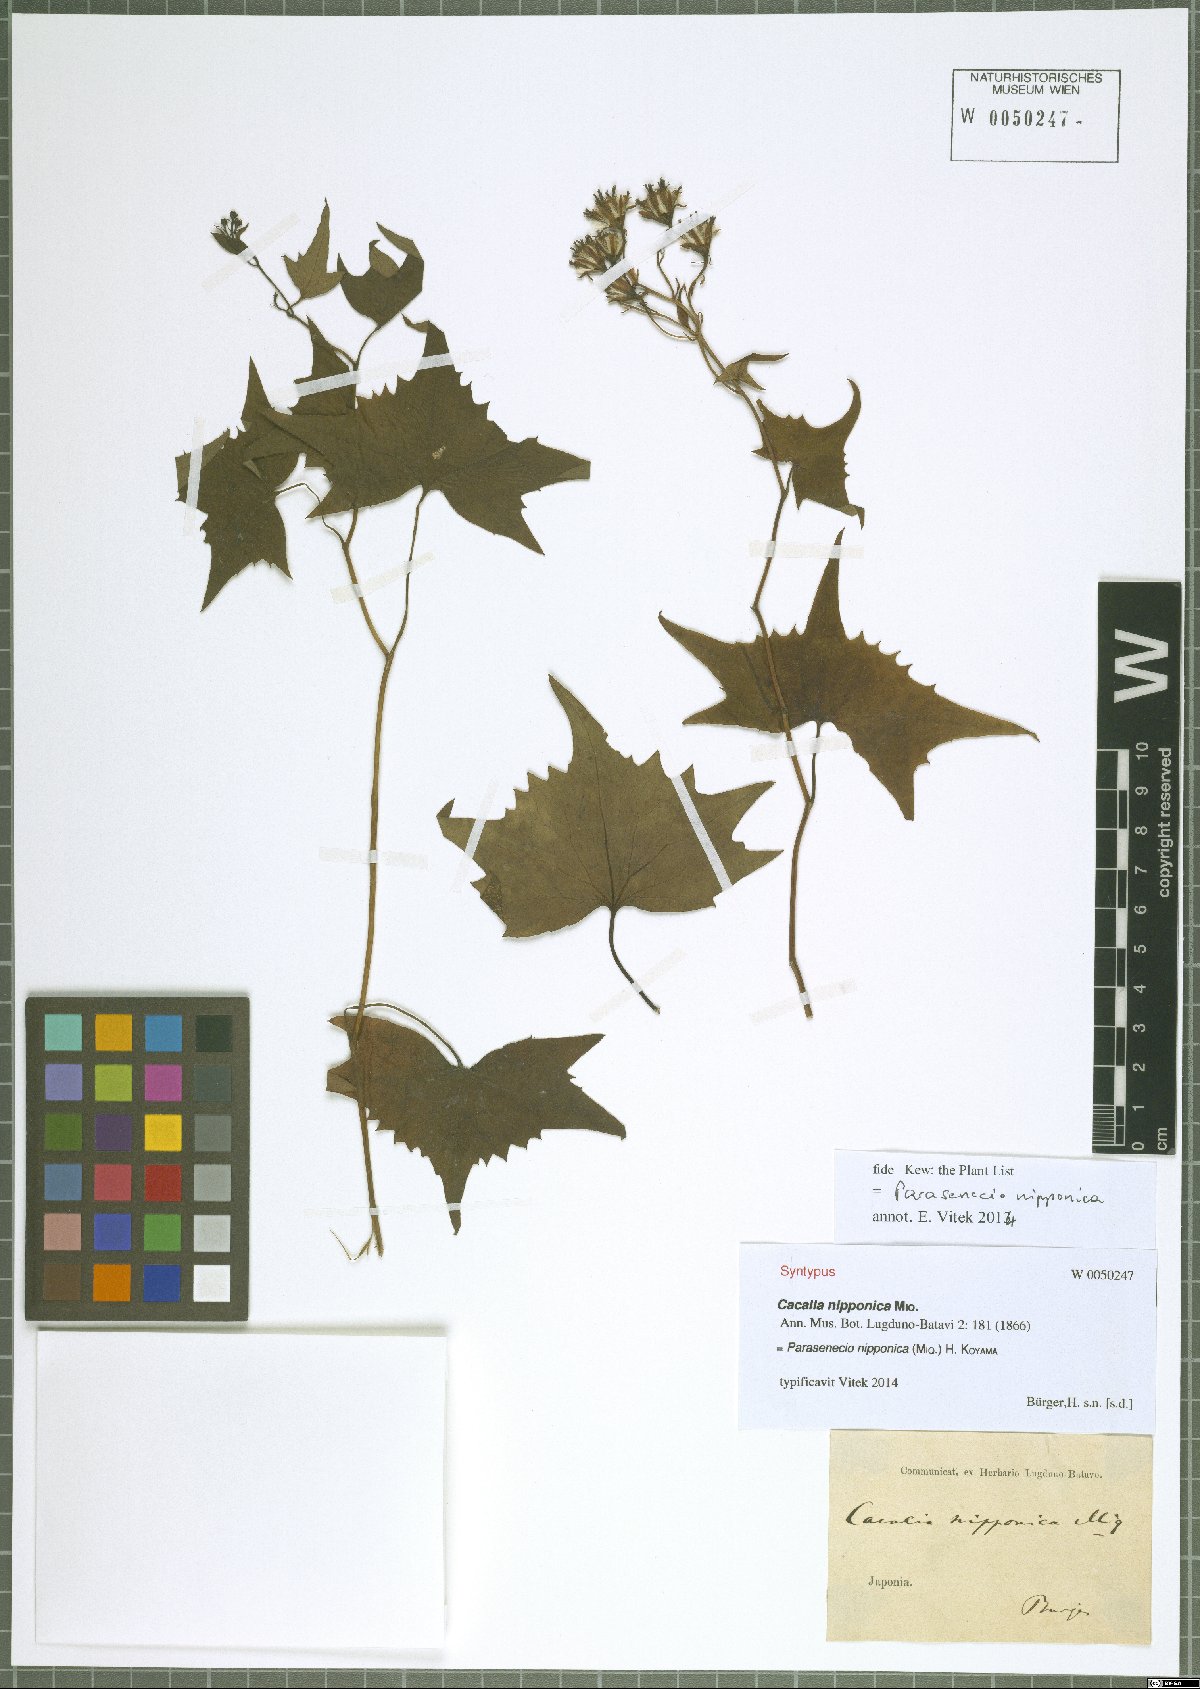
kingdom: Plantae
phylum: Tracheophyta
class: Magnoliopsida
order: Asterales
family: Asteraceae
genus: Parasenecio
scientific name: Parasenecio nipponicus
